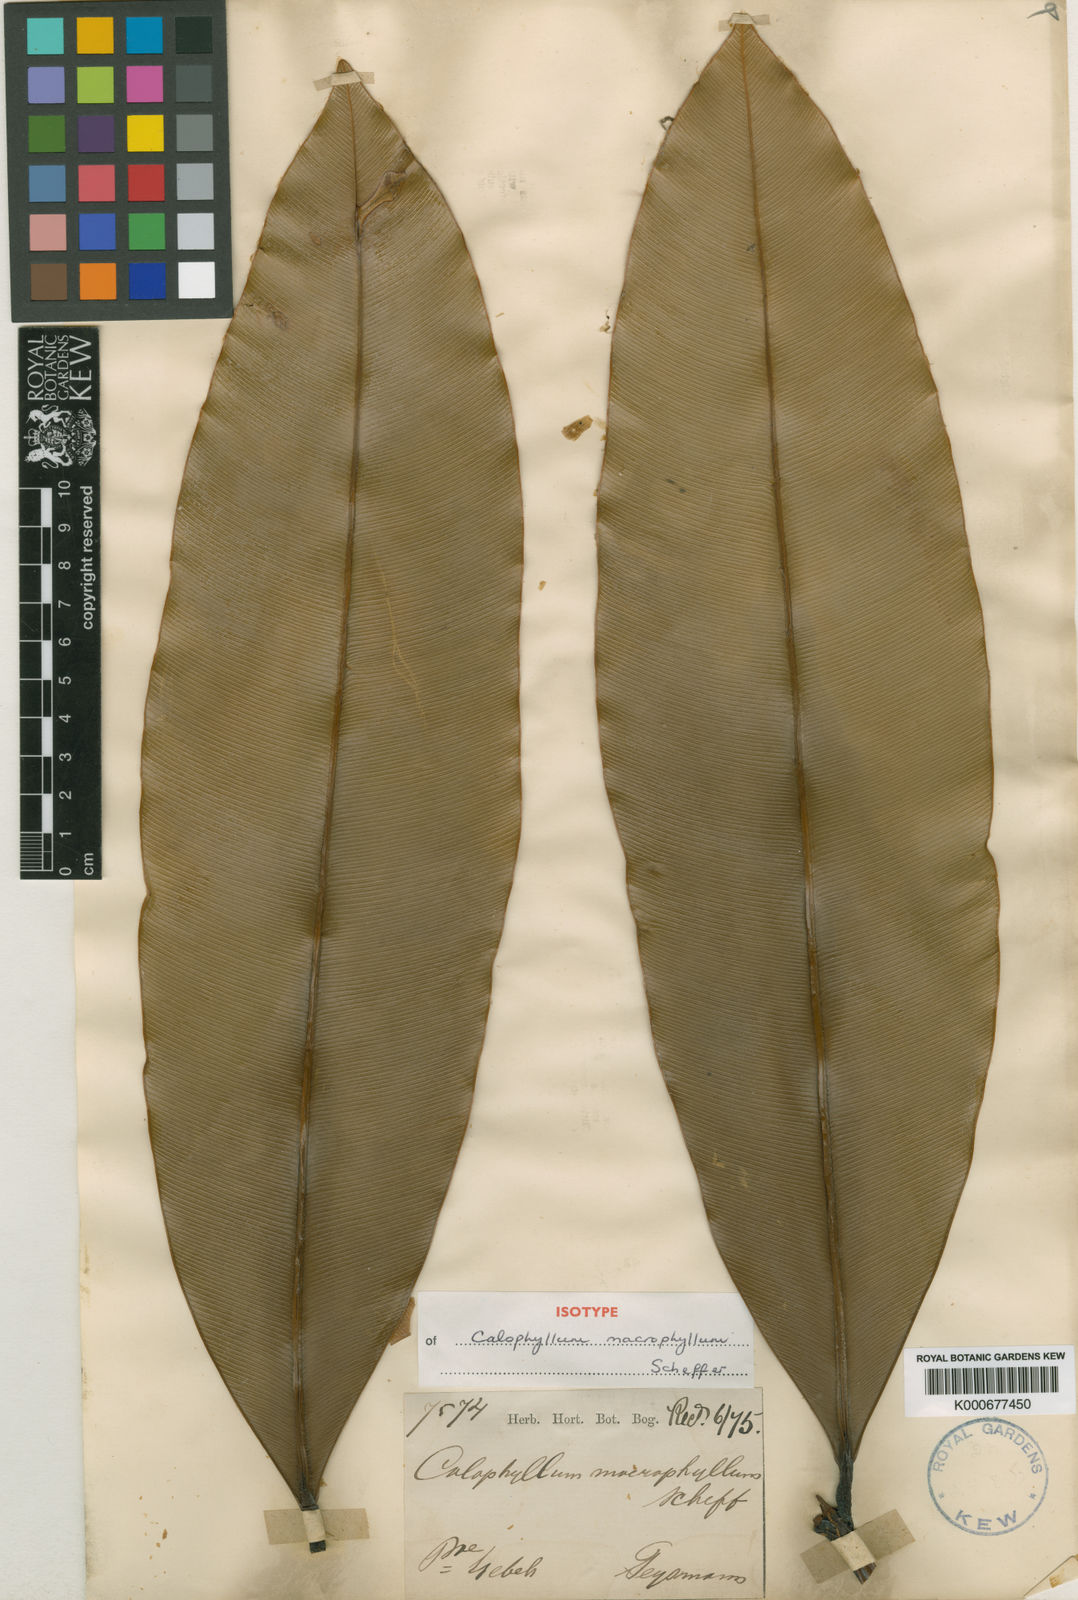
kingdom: Plantae
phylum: Tracheophyta
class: Magnoliopsida
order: Malpighiales
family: Calophyllaceae
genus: Calophyllum
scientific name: Calophyllum macrophyllum
